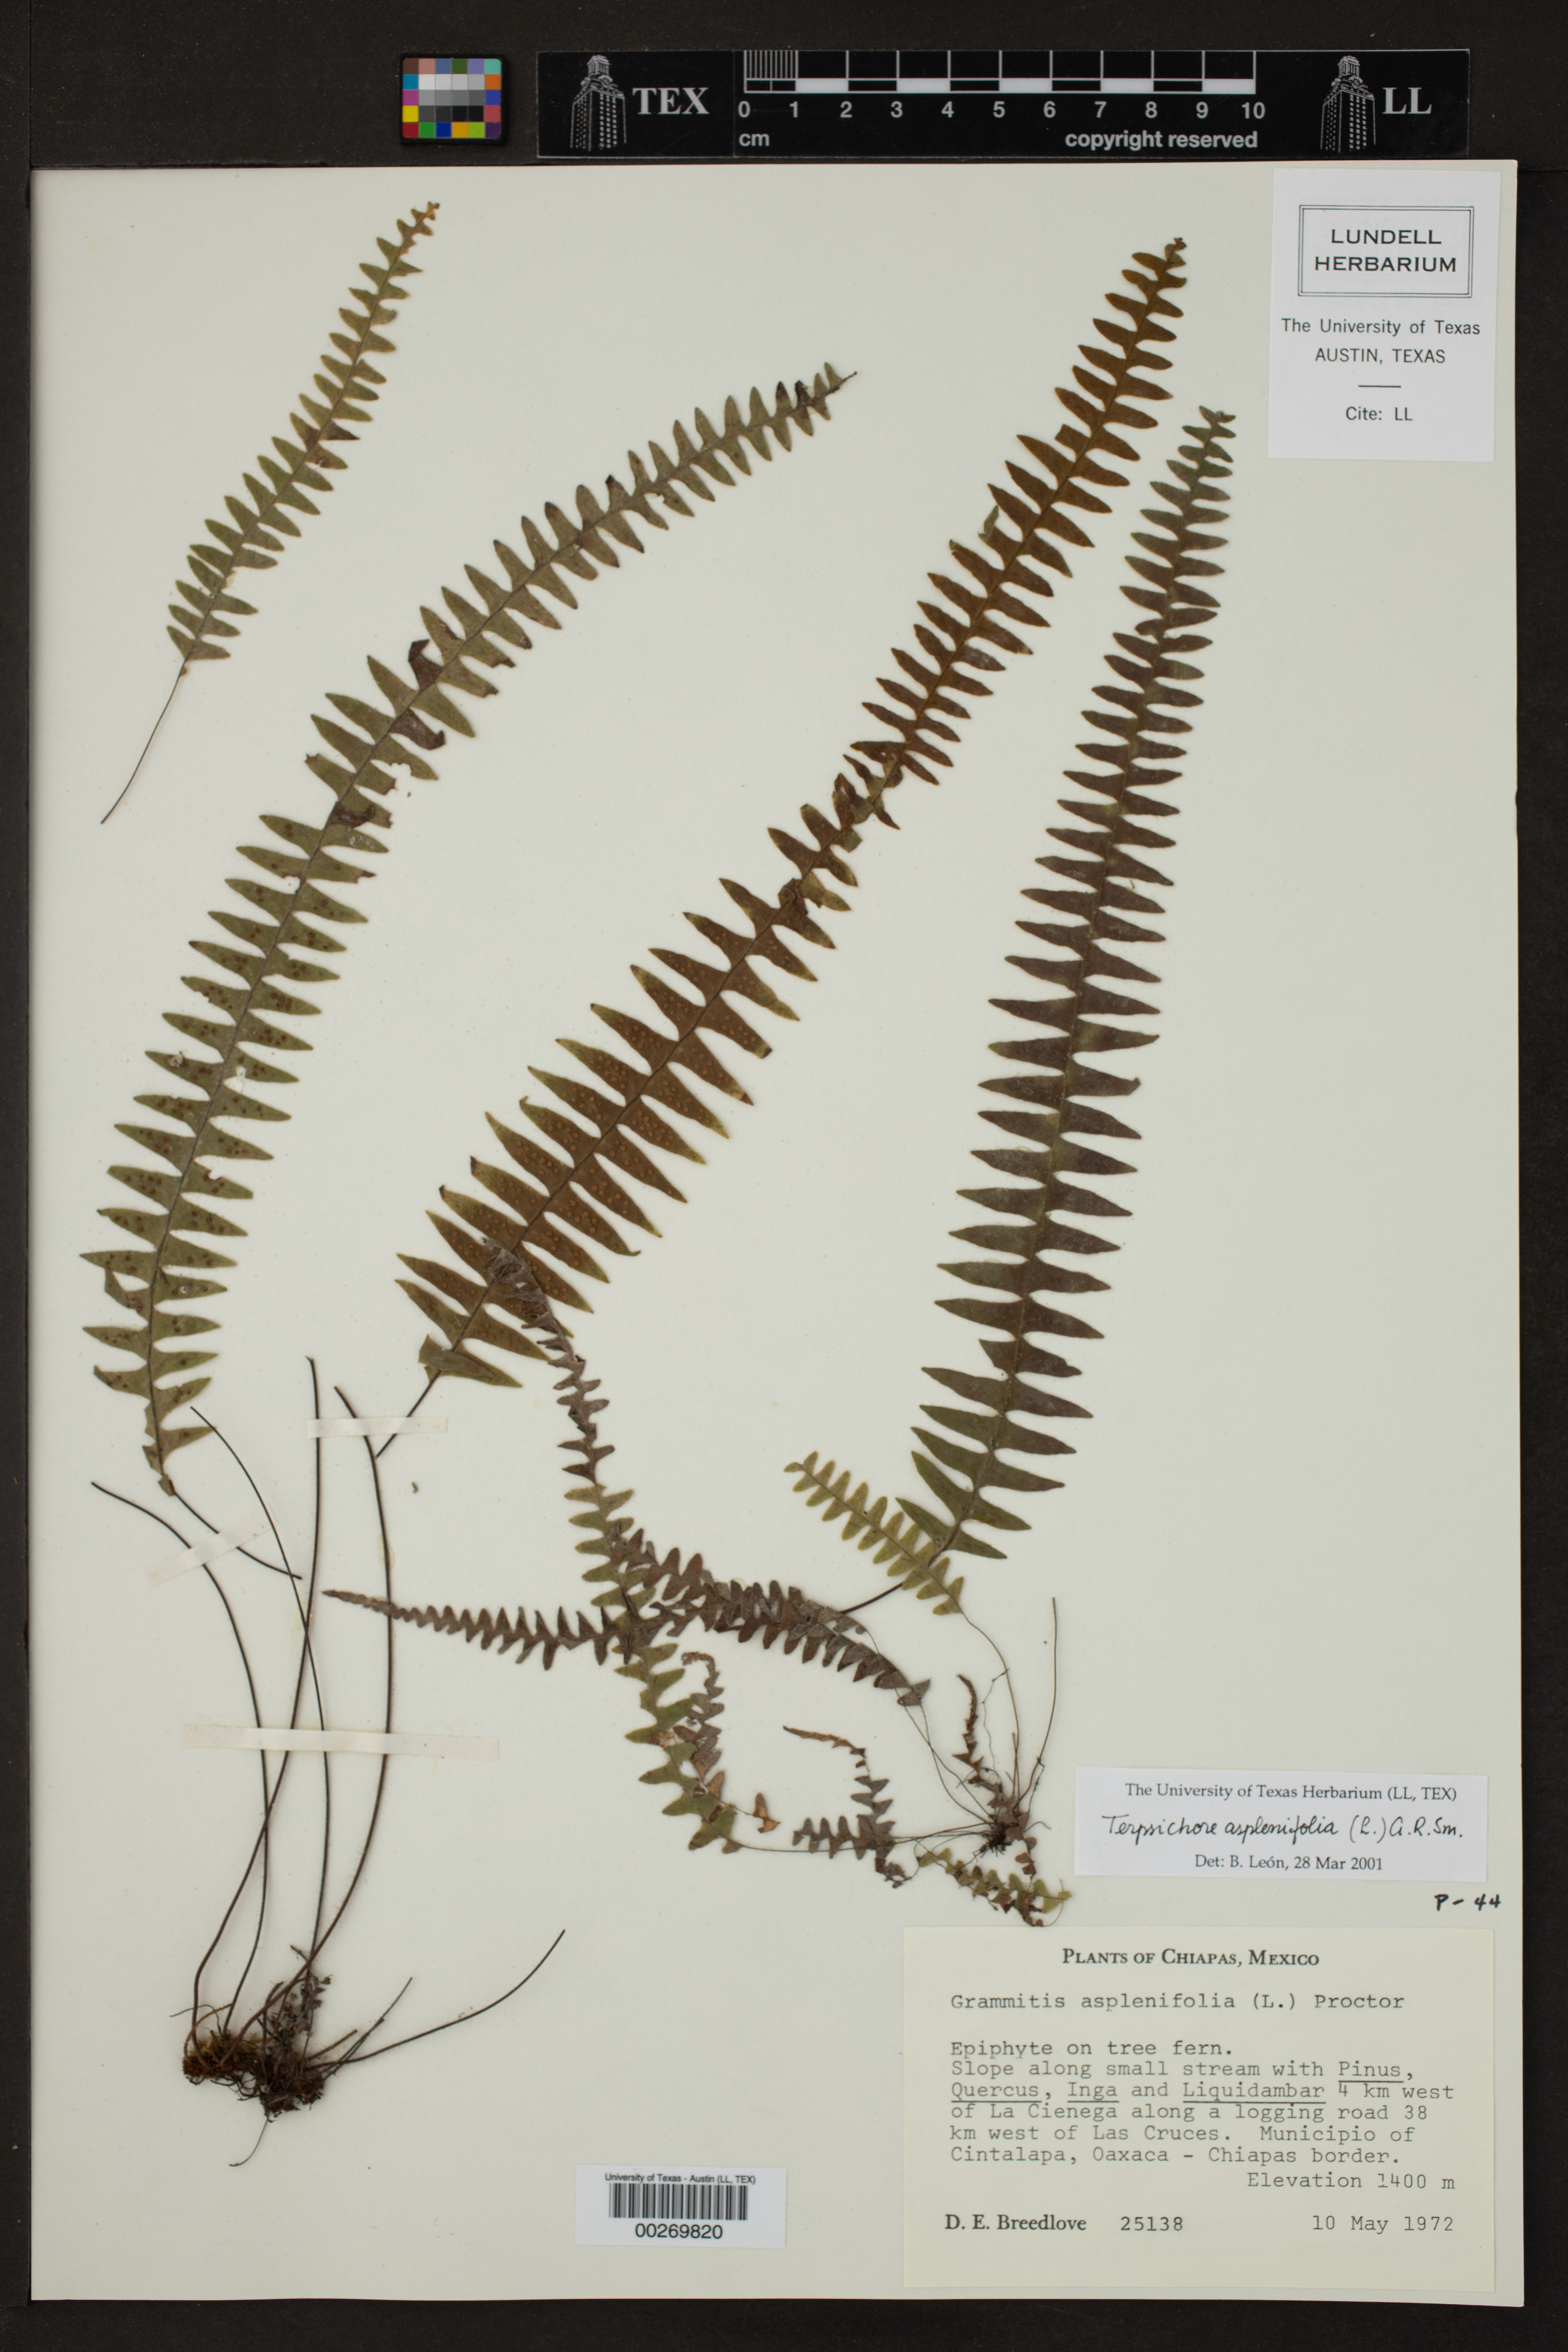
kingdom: Plantae
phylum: Tracheophyta
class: Polypodiopsida
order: Polypodiales
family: Polypodiaceae
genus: Terpsichore
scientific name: Terpsichore asplenifolia
